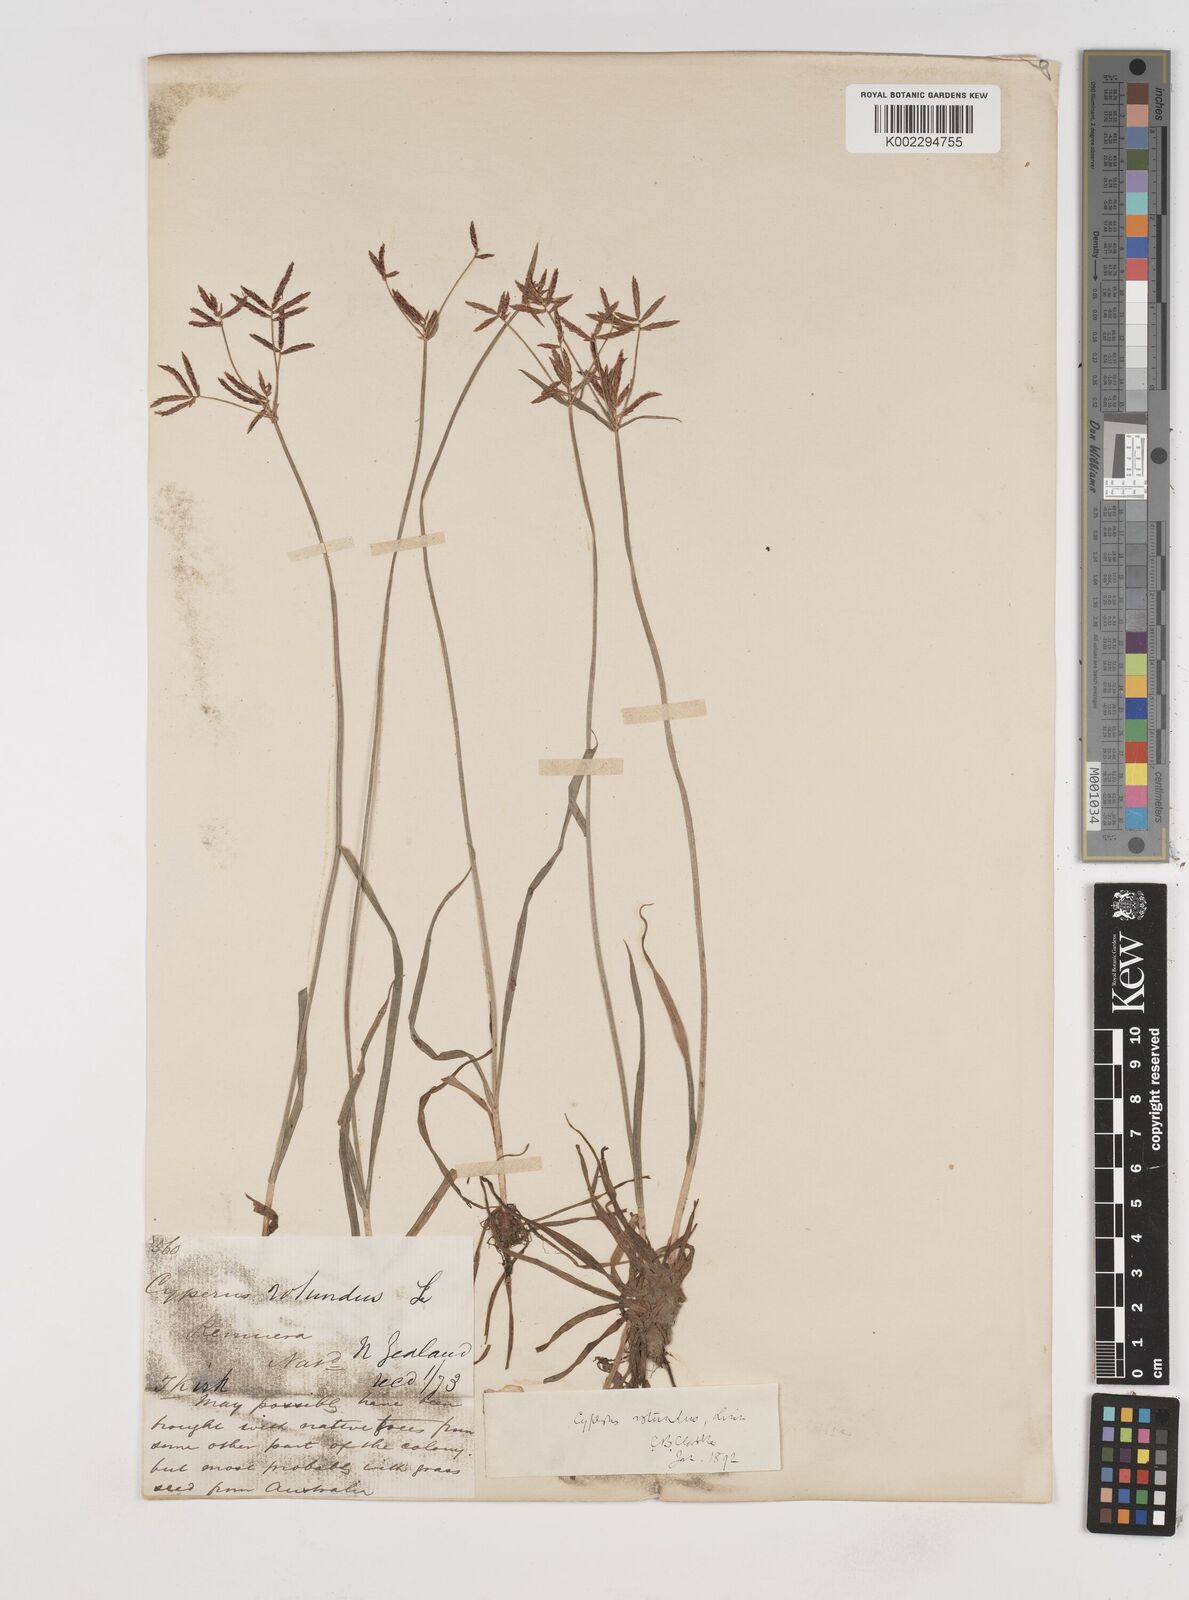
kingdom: Plantae
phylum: Tracheophyta
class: Liliopsida
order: Poales
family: Cyperaceae
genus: Cyperus
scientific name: Cyperus rotundus
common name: Nutgrass
